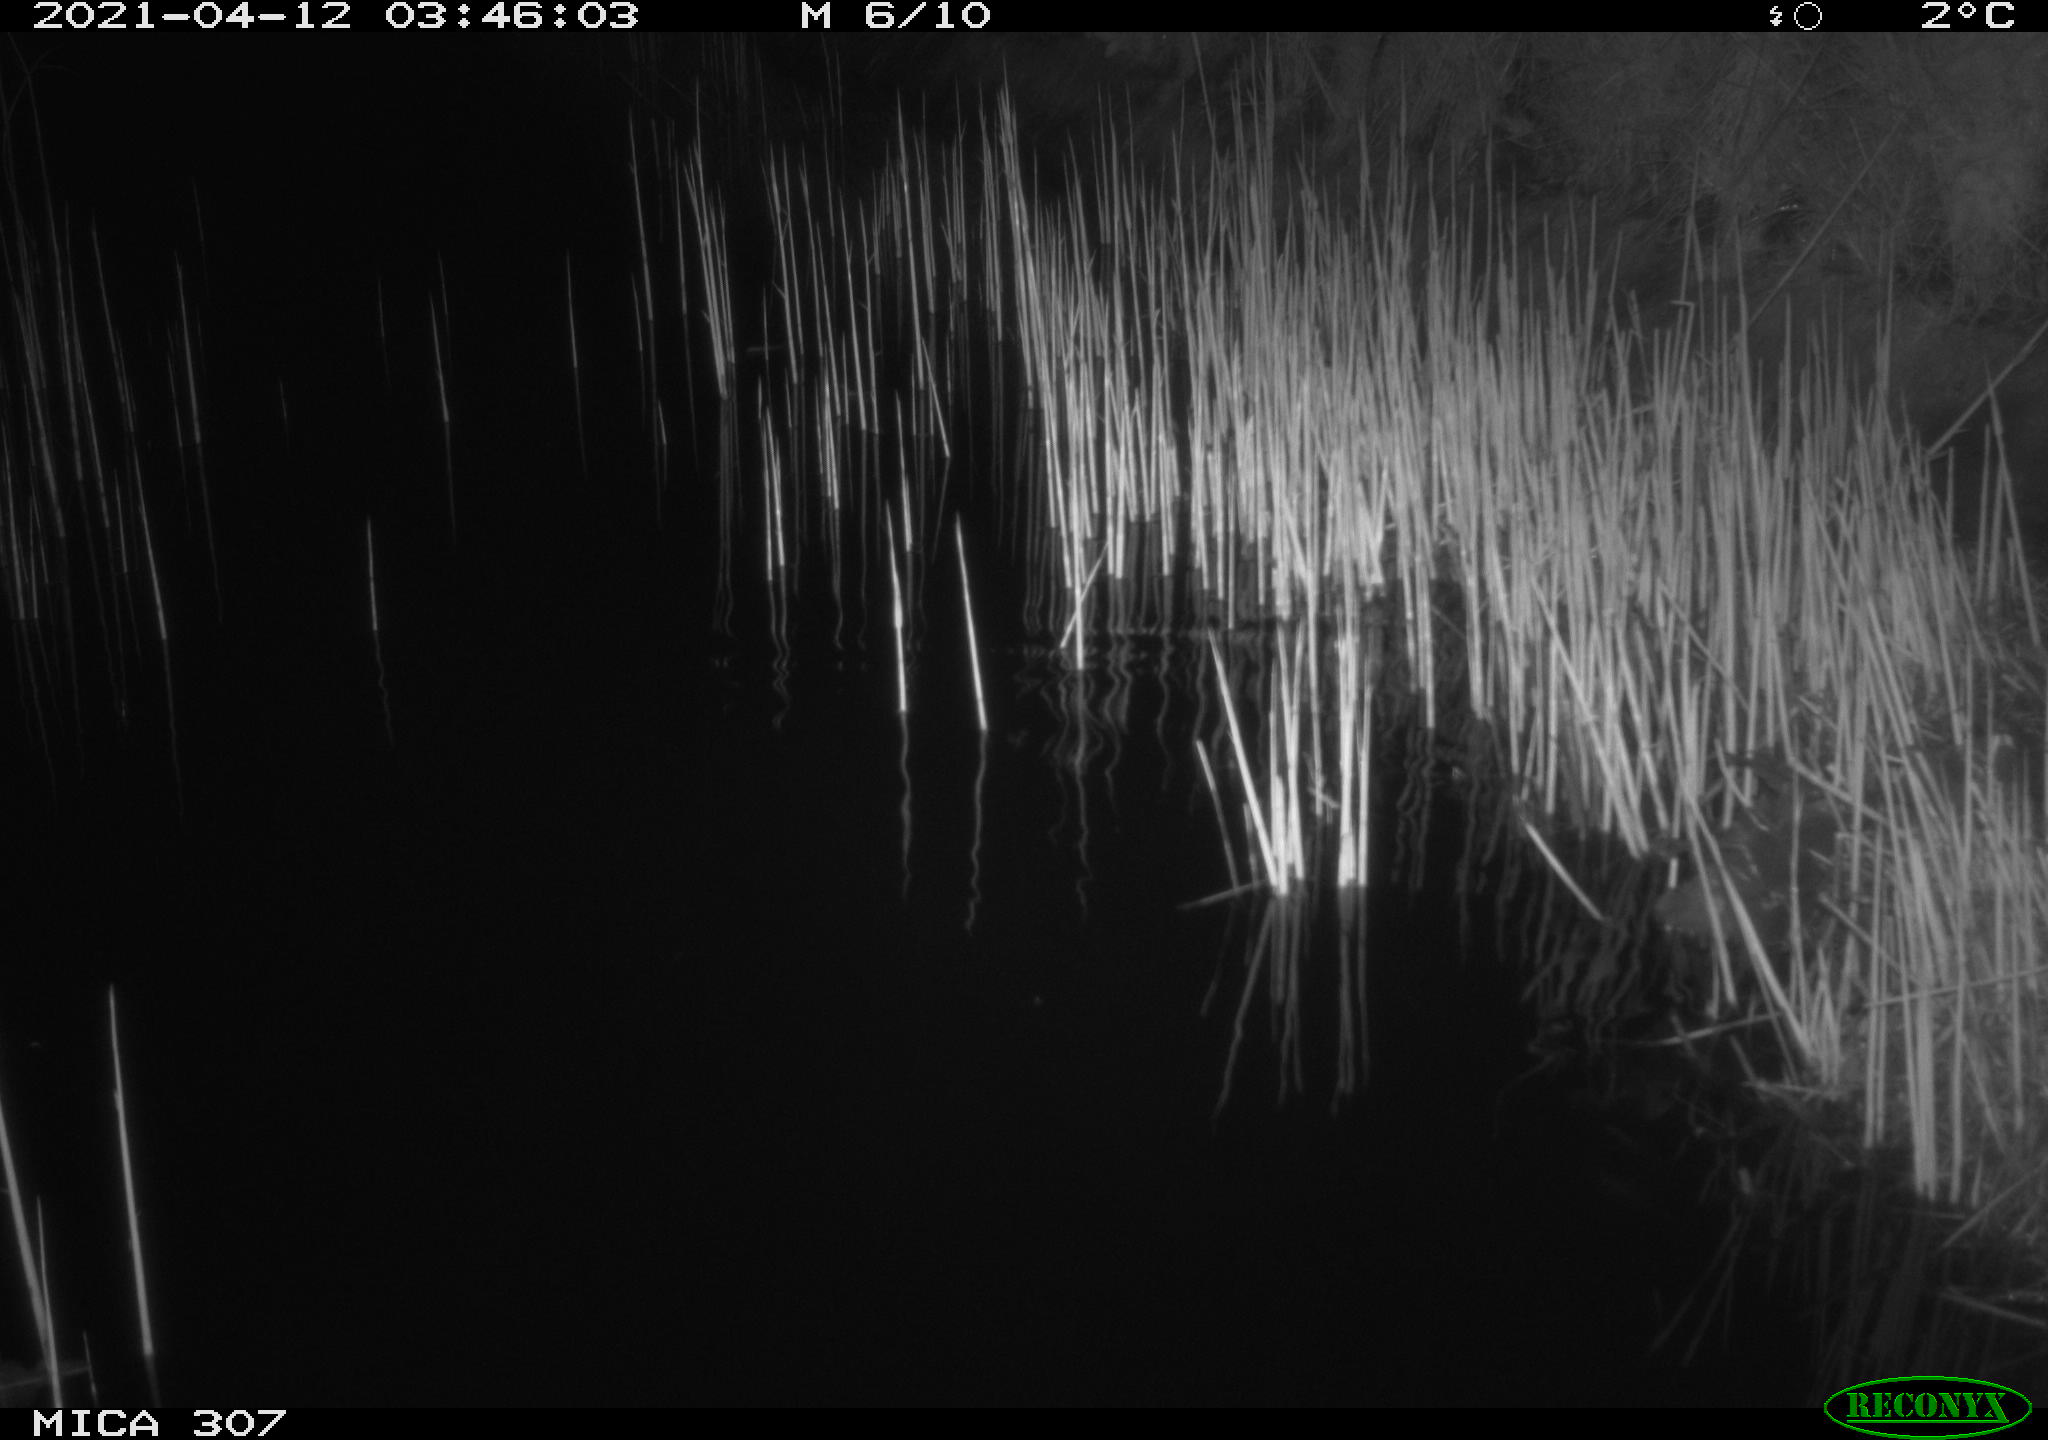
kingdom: Animalia
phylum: Chordata
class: Mammalia
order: Rodentia
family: Muridae
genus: Rattus
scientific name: Rattus norvegicus
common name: Brown rat
